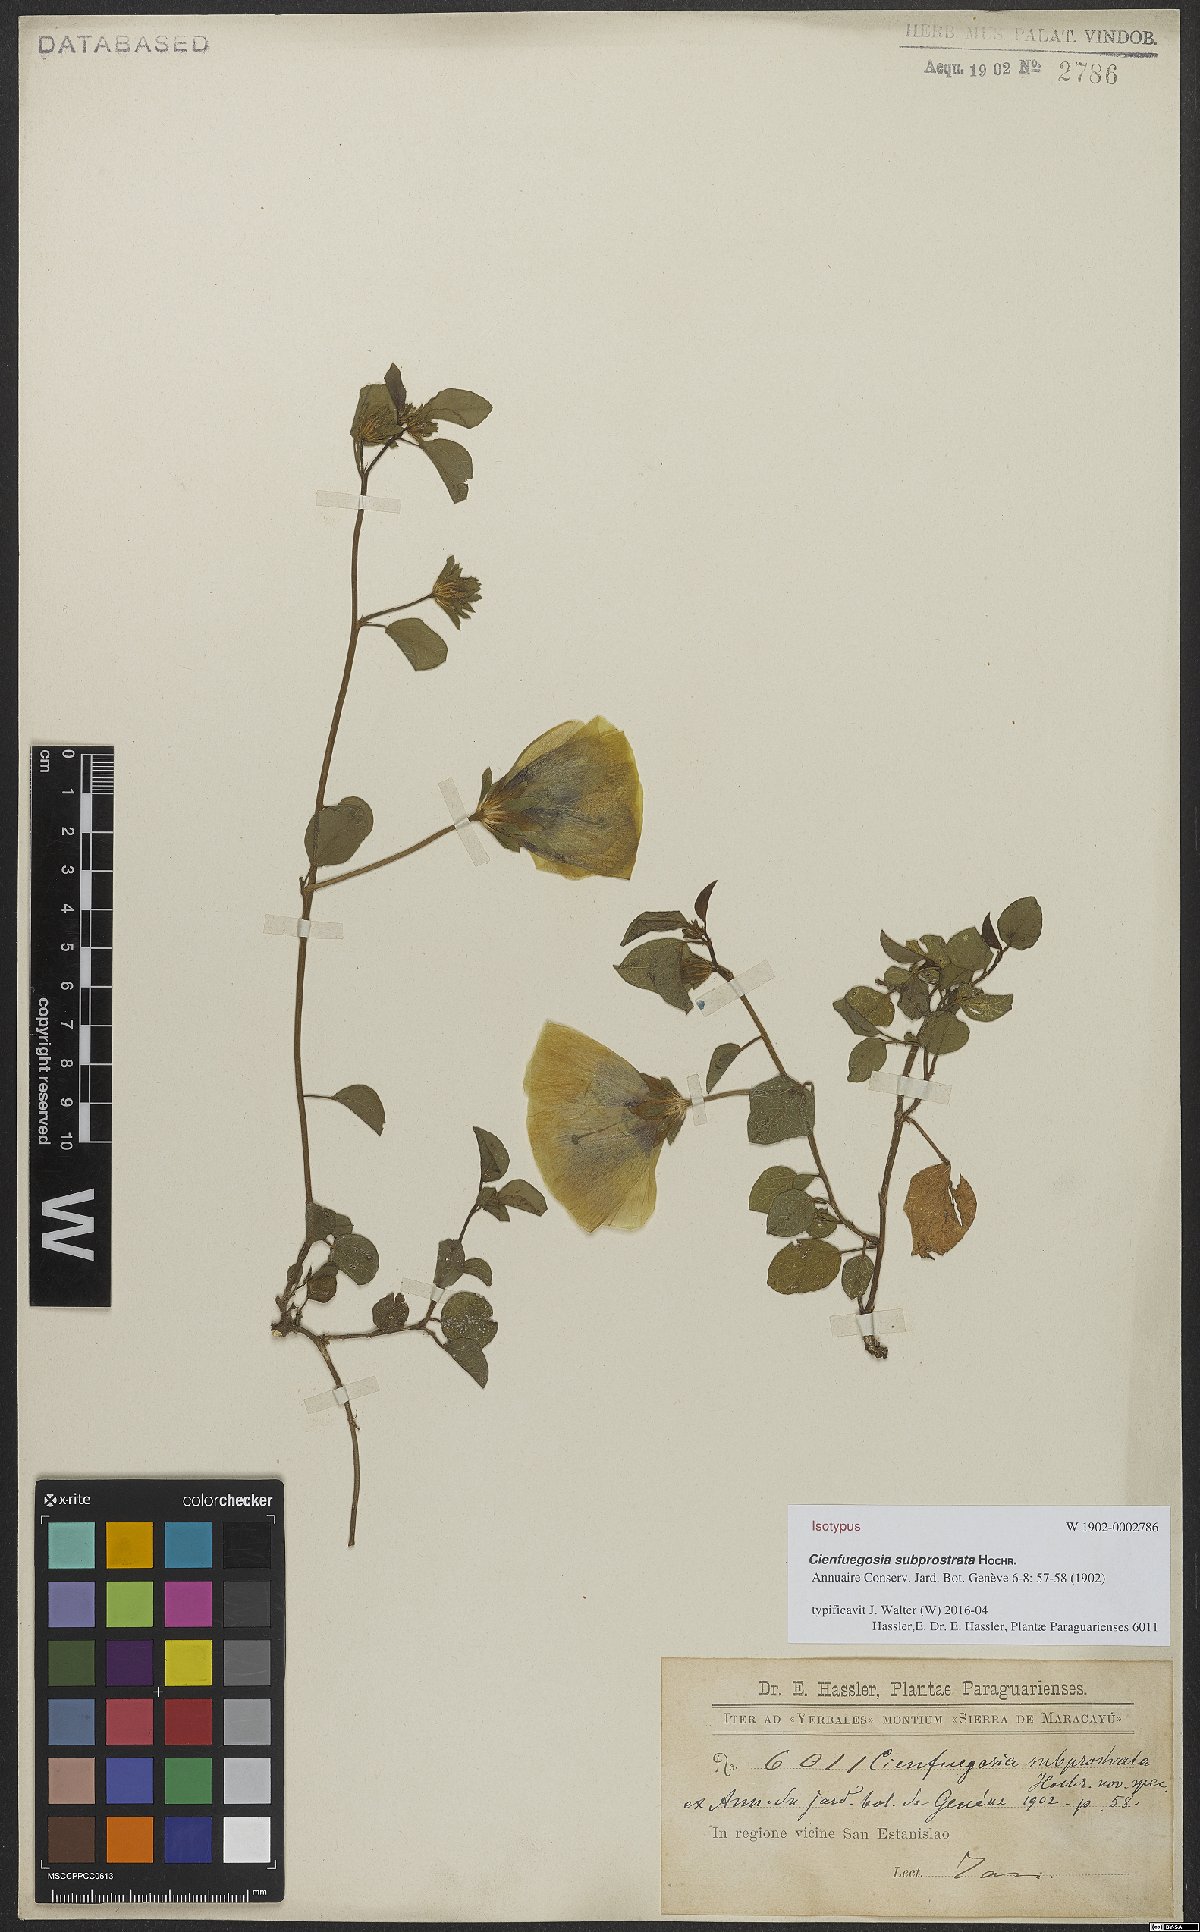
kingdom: Plantae
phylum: Tracheophyta
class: Magnoliopsida
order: Malvales
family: Malvaceae
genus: Cienfuegosia
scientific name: Cienfuegosia subprostrata
